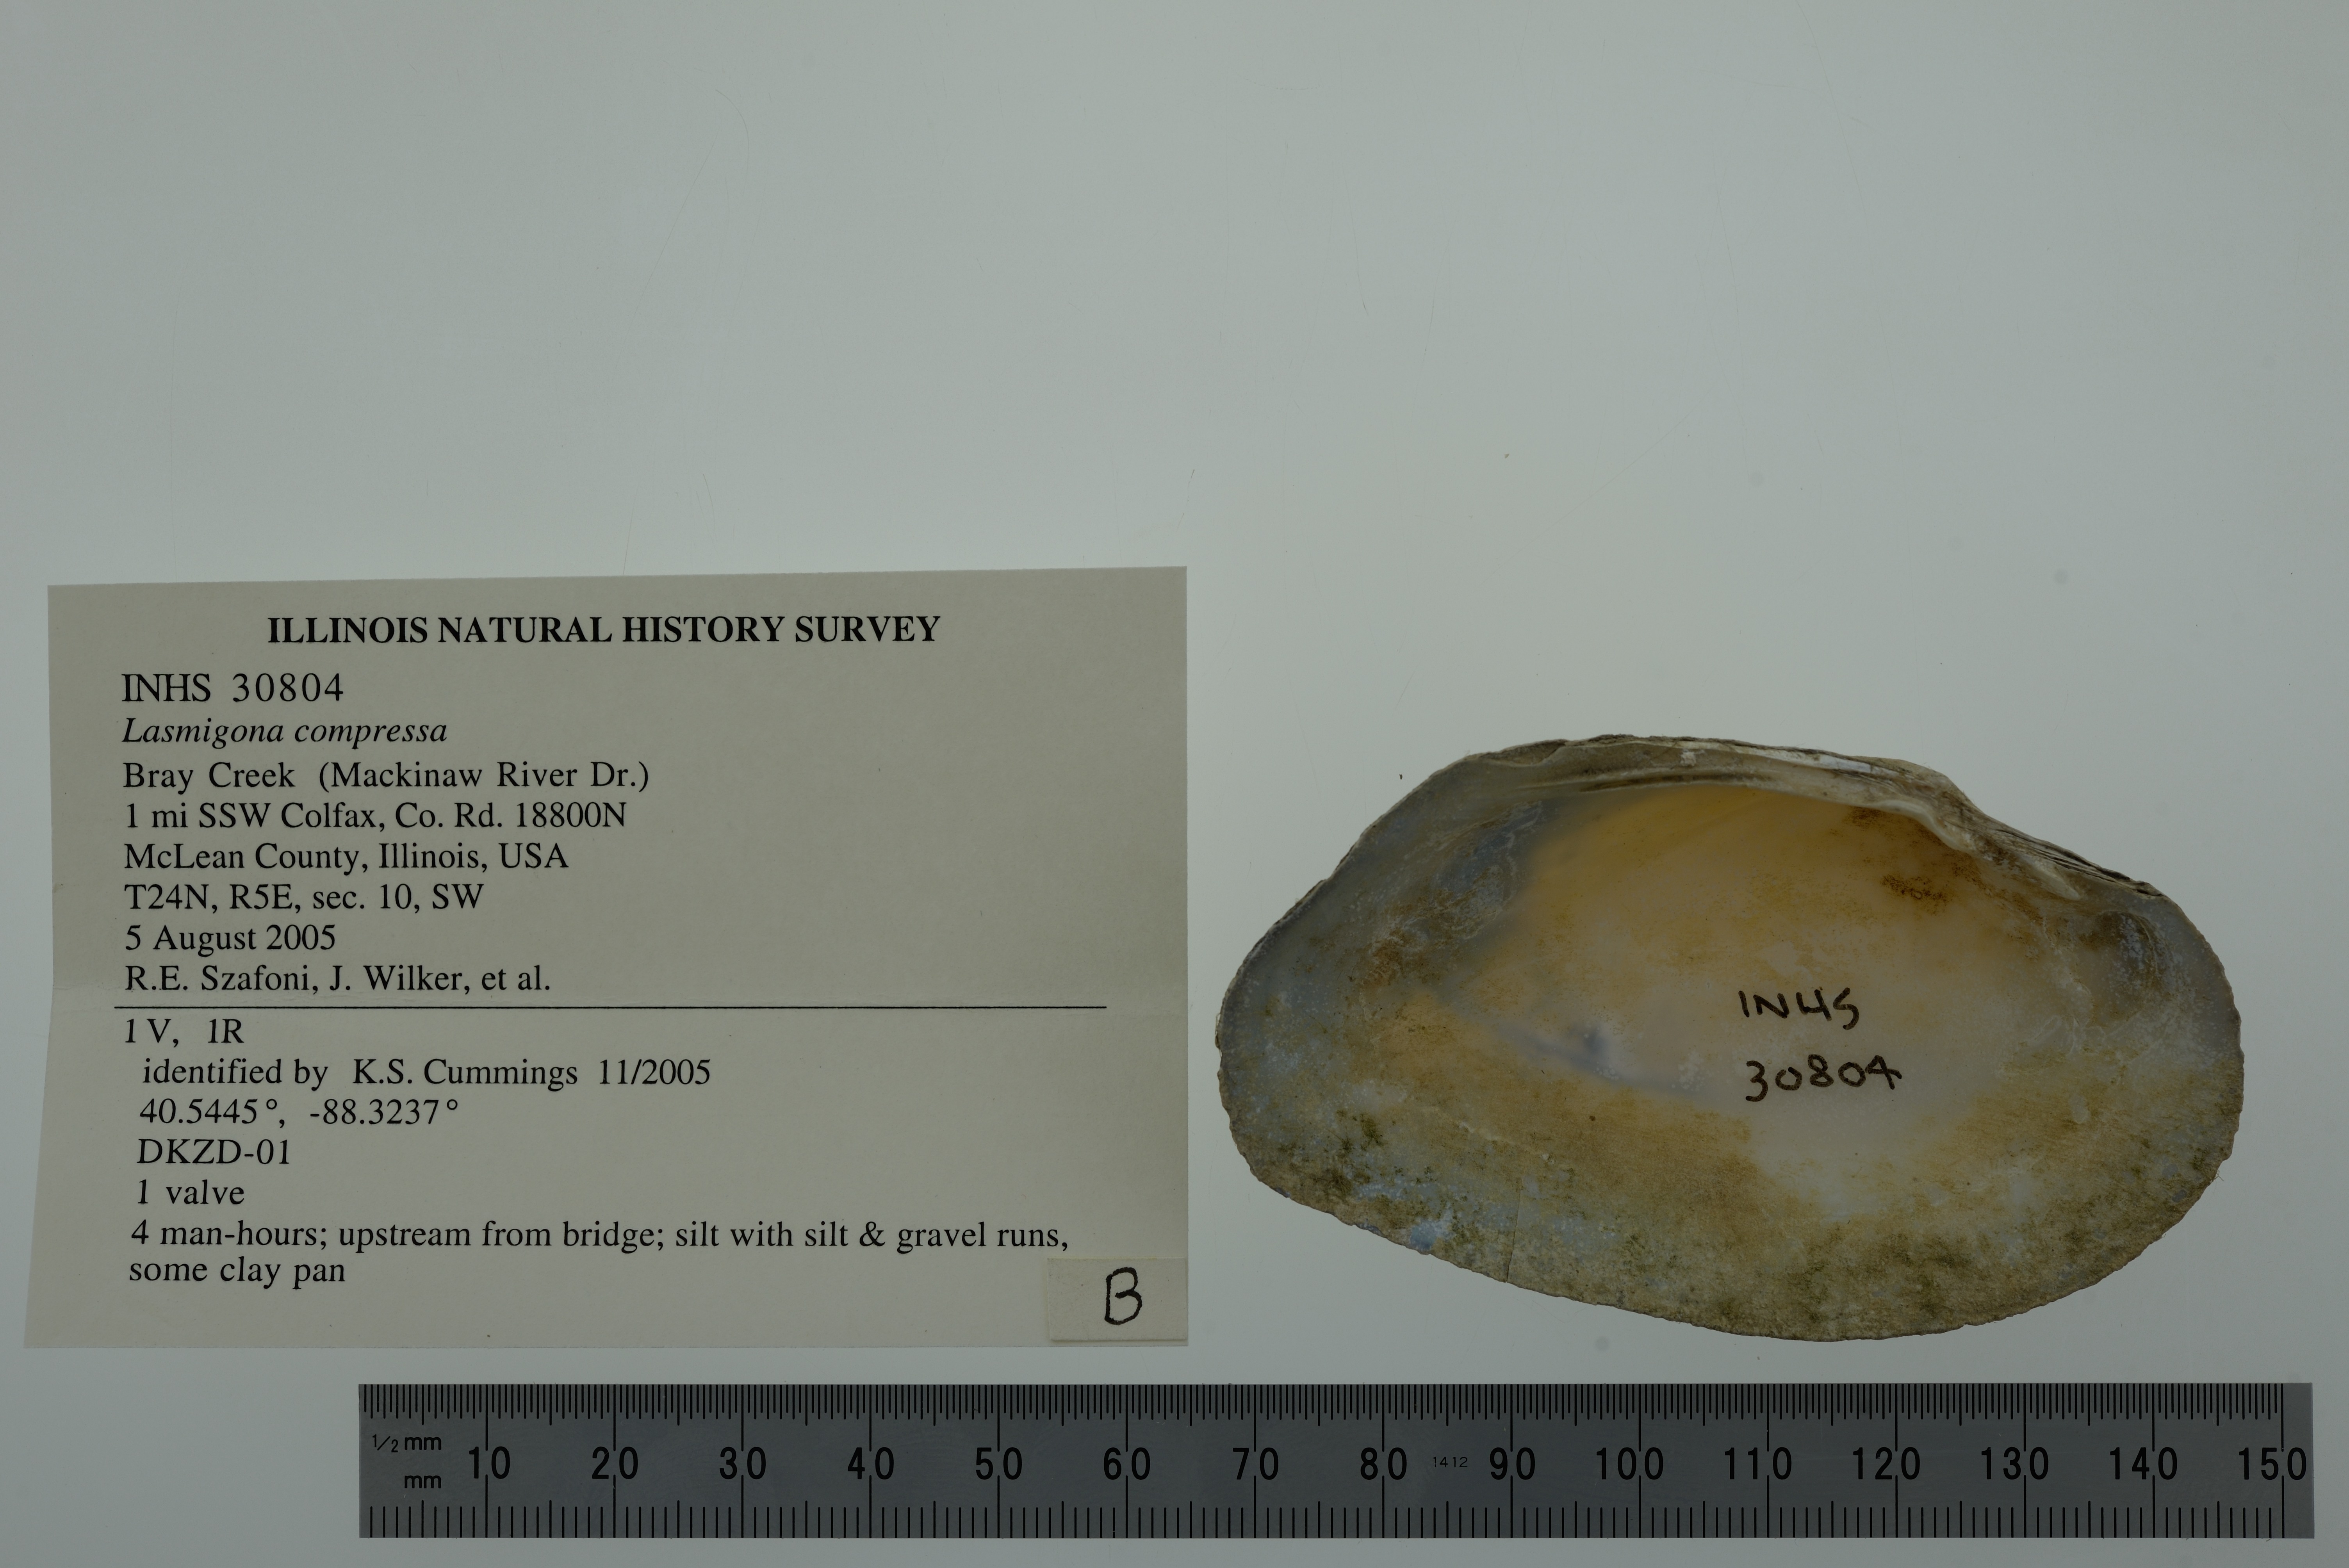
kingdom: Animalia
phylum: Mollusca
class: Bivalvia
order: Unionida
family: Unionidae
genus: Lasmigona
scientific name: Lasmigona compressa
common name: Creek heelsplitter
